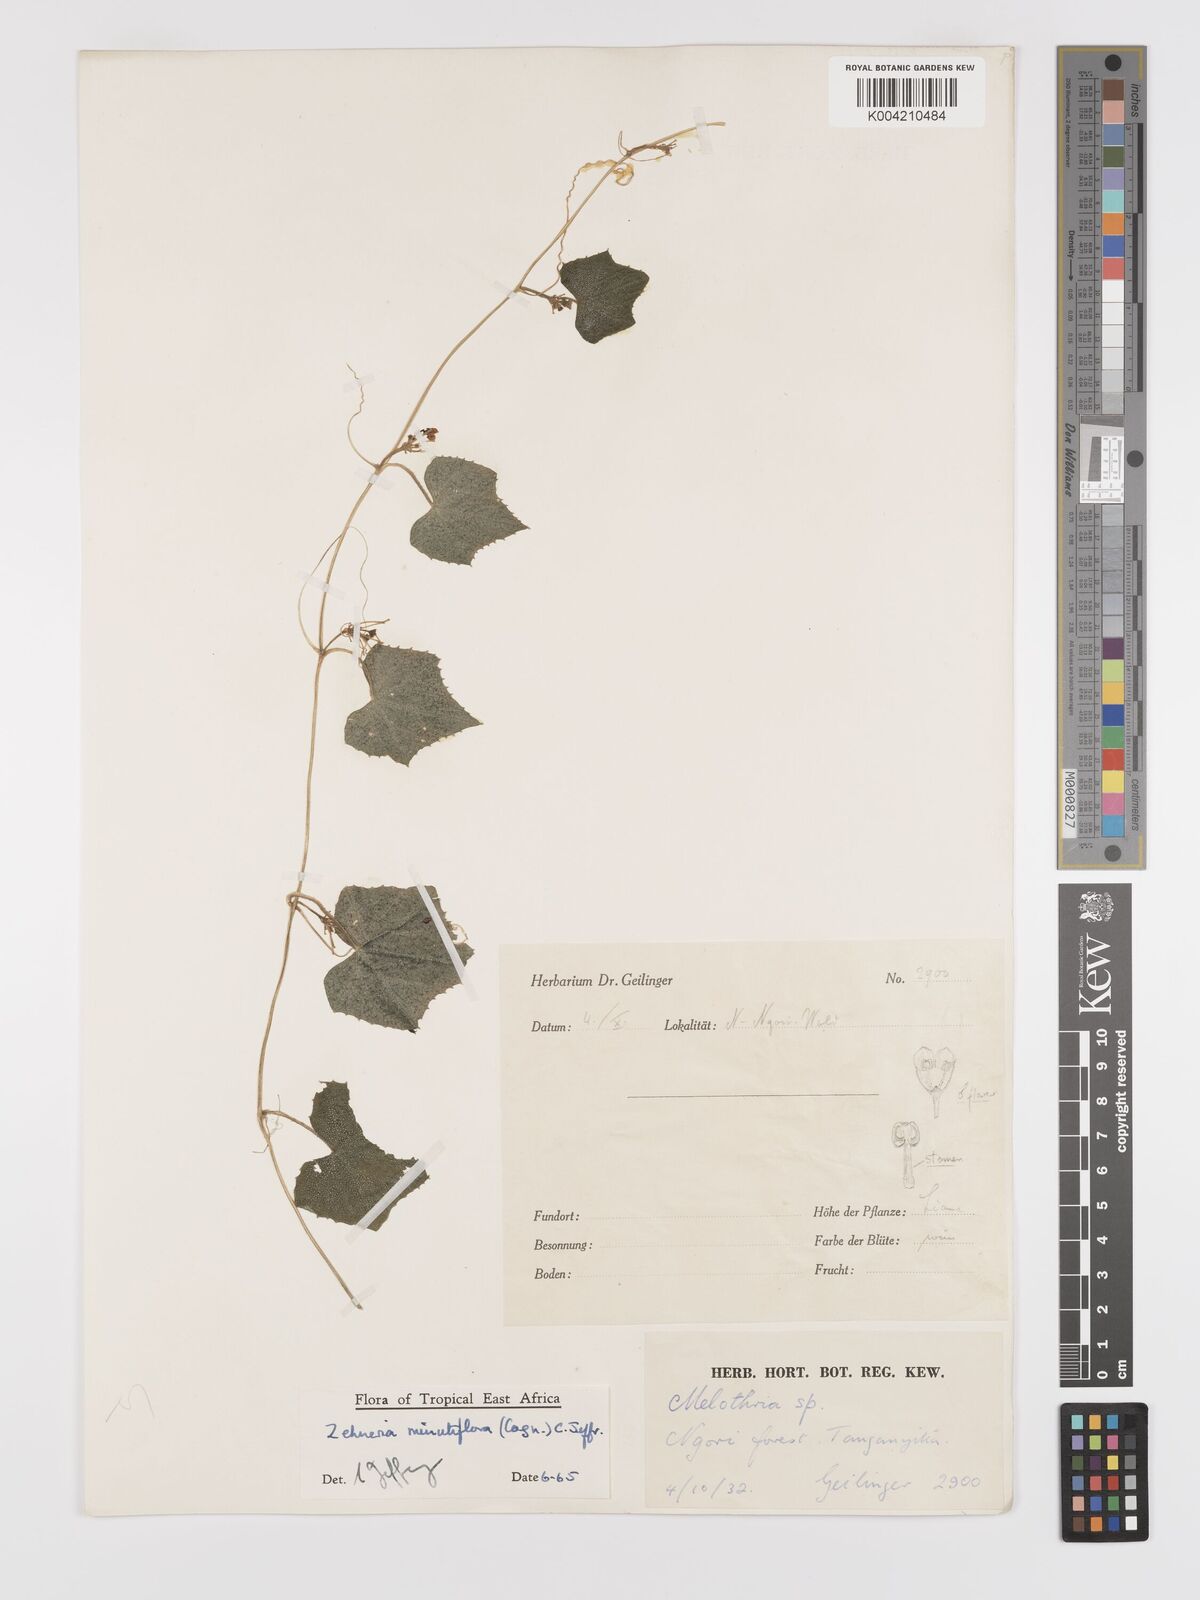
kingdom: Plantae
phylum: Tracheophyta
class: Magnoliopsida
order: Cucurbitales
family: Cucurbitaceae
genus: Zehneria
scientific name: Zehneria minutiflora
